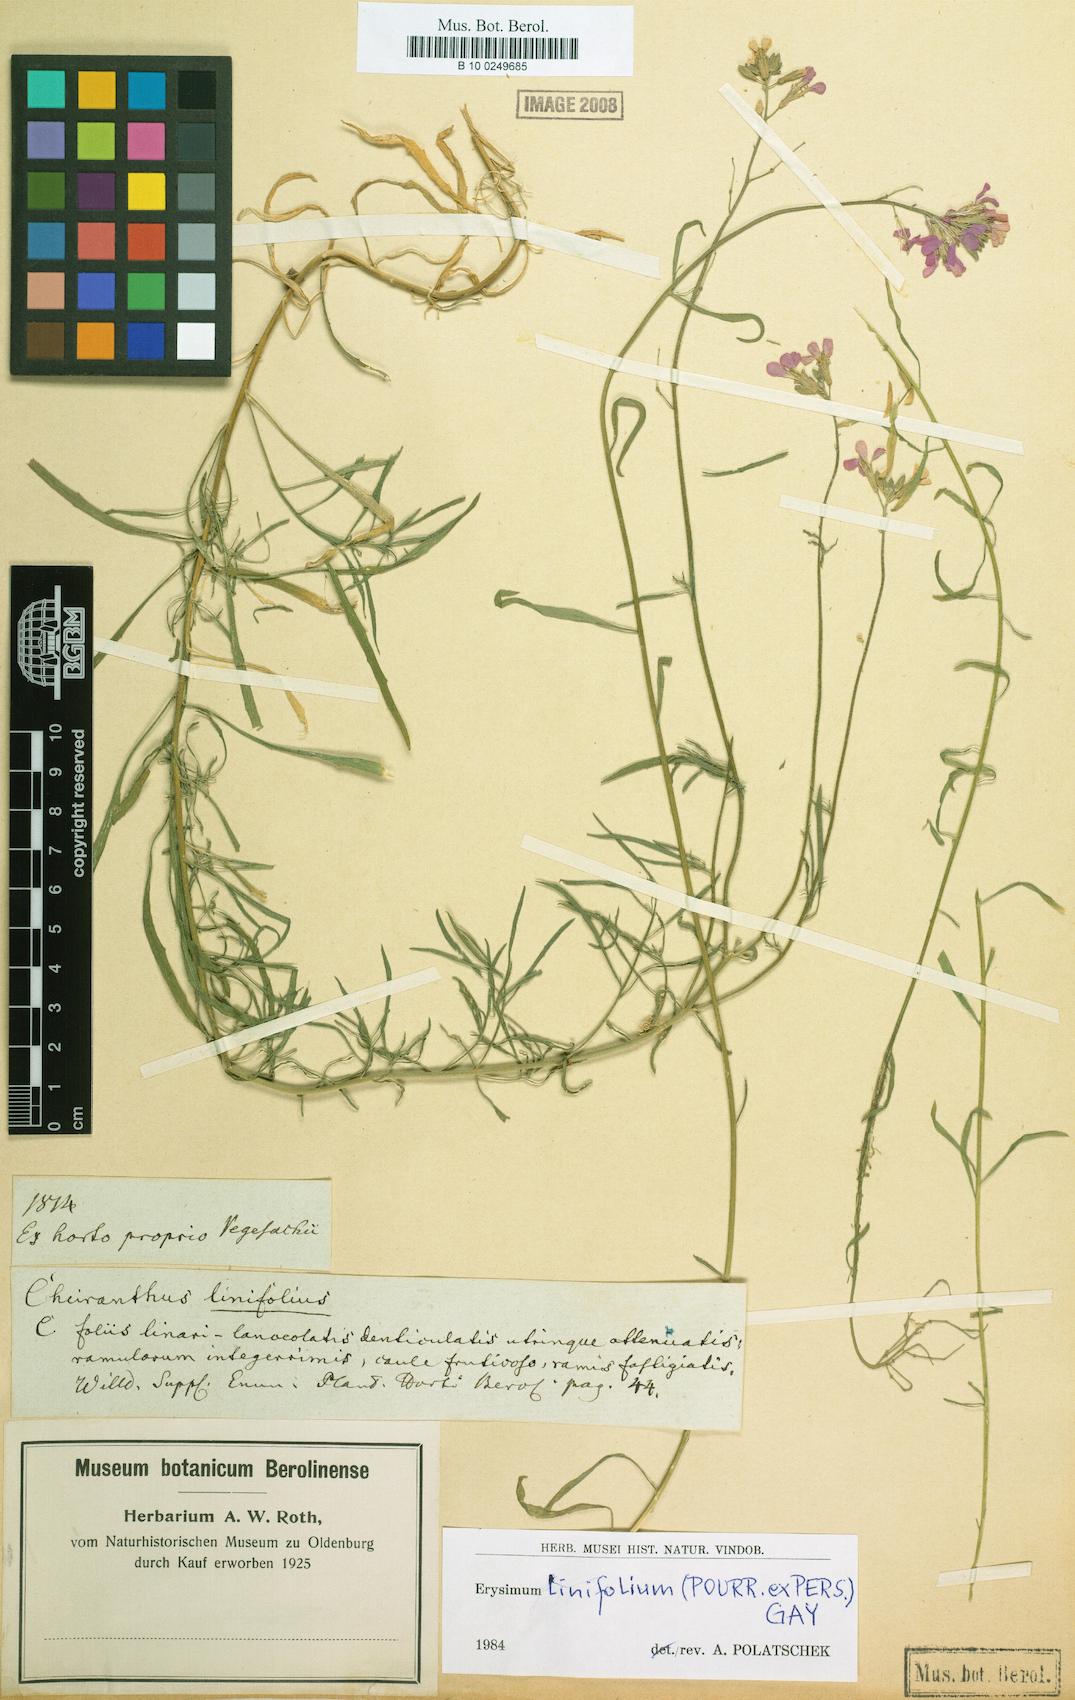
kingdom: Plantae
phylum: Tracheophyta
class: Magnoliopsida
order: Brassicales
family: Brassicaceae
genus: Erysimum
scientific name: Erysimum linifolium
